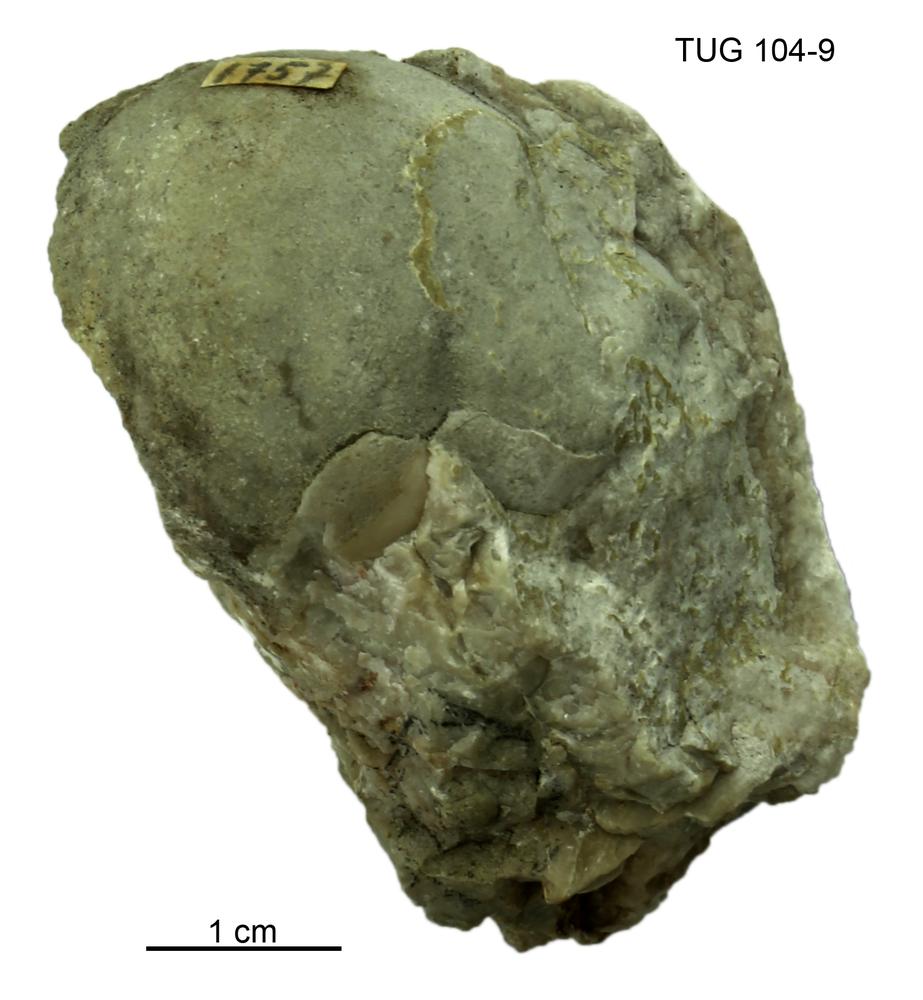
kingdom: Animalia
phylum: Arthropoda
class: Trilobita
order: Corynexochida
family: Illaenidae
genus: Stenopareia
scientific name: Stenopareia linnarssoni
